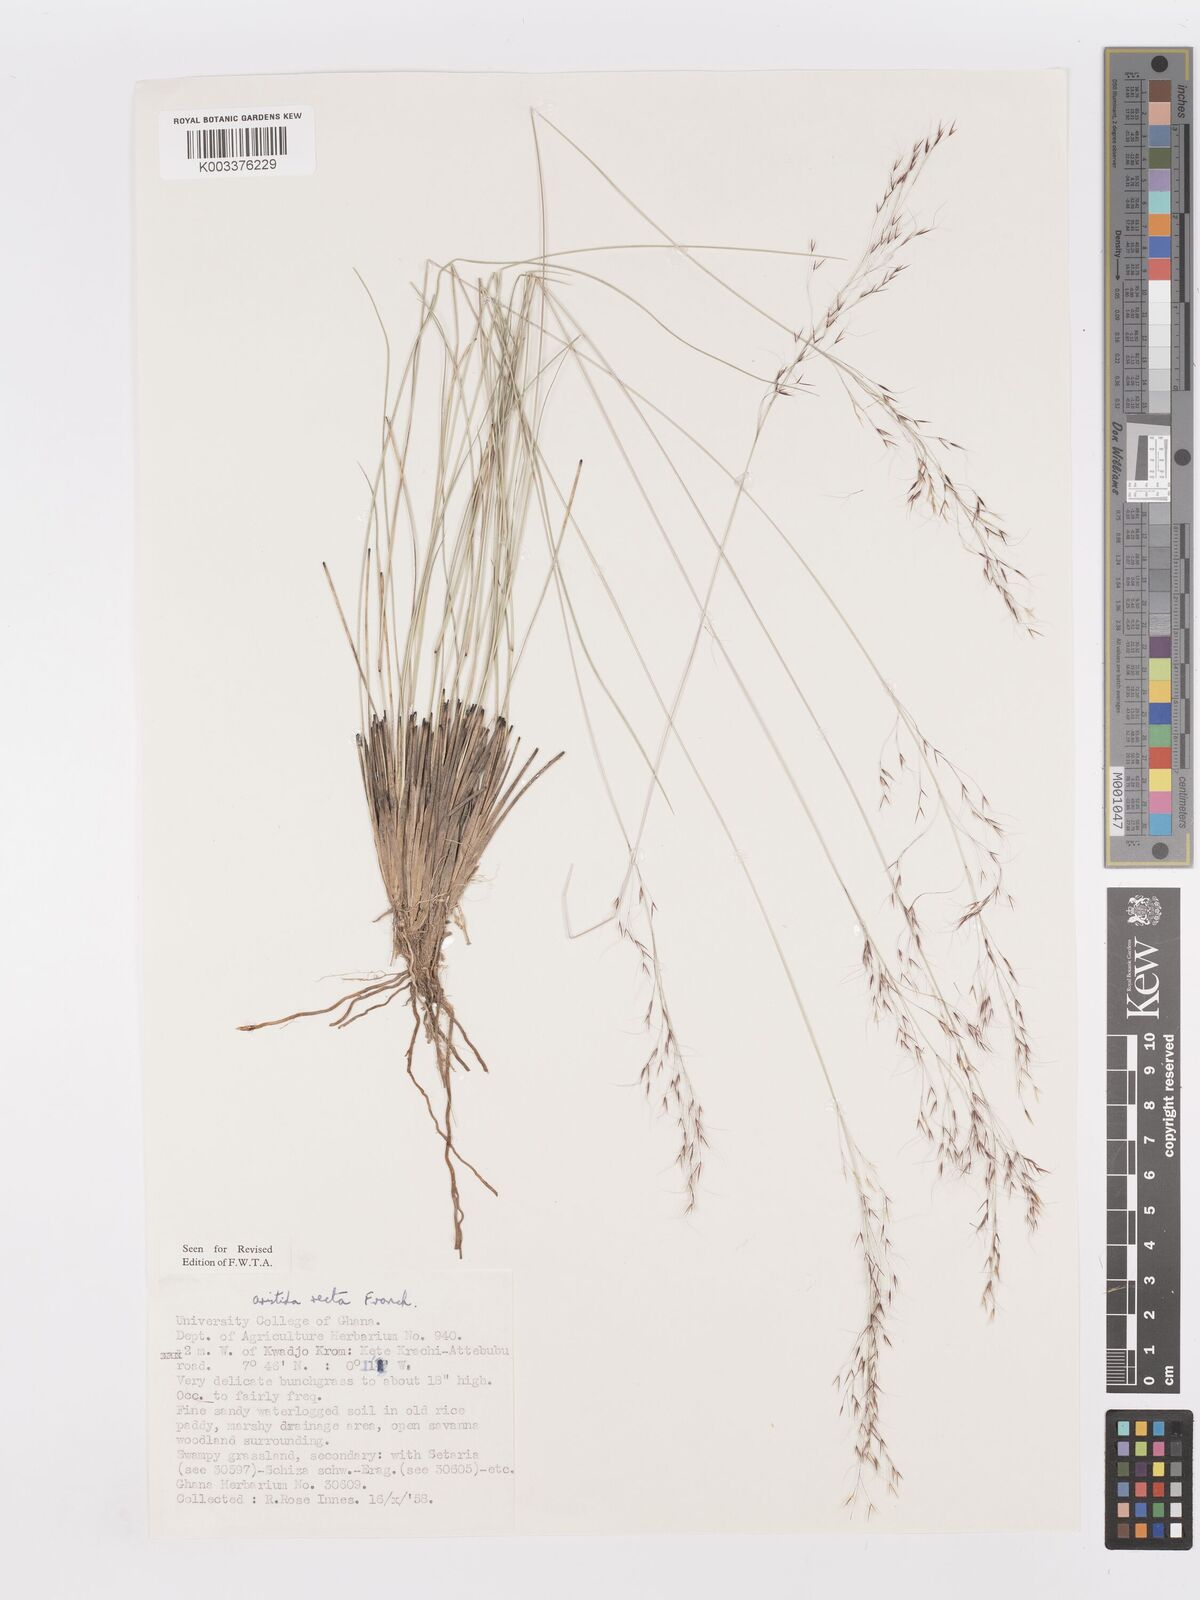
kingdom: Plantae
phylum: Tracheophyta
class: Liliopsida
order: Poales
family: Poaceae
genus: Aristida
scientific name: Aristida recta
